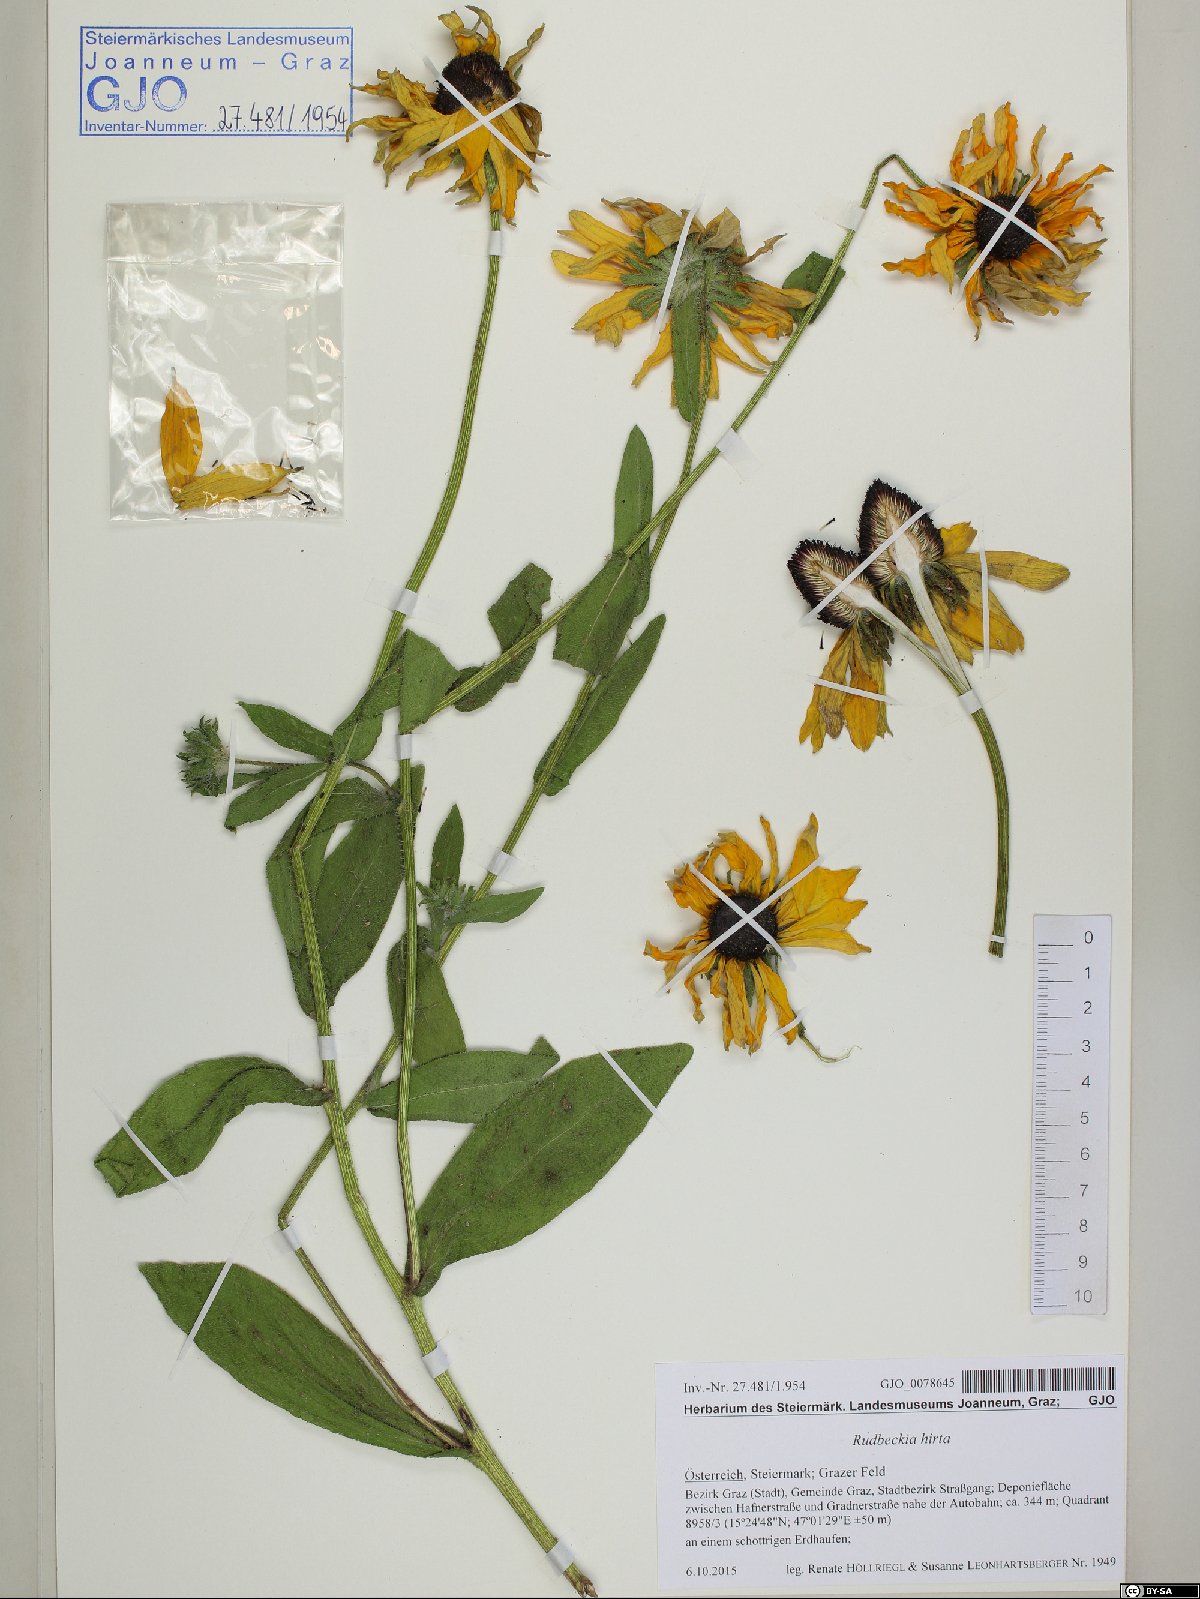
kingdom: Plantae
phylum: Tracheophyta
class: Magnoliopsida
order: Asterales
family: Asteraceae
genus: Rudbeckia
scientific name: Rudbeckia hirta
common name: Black-eyed-susan
